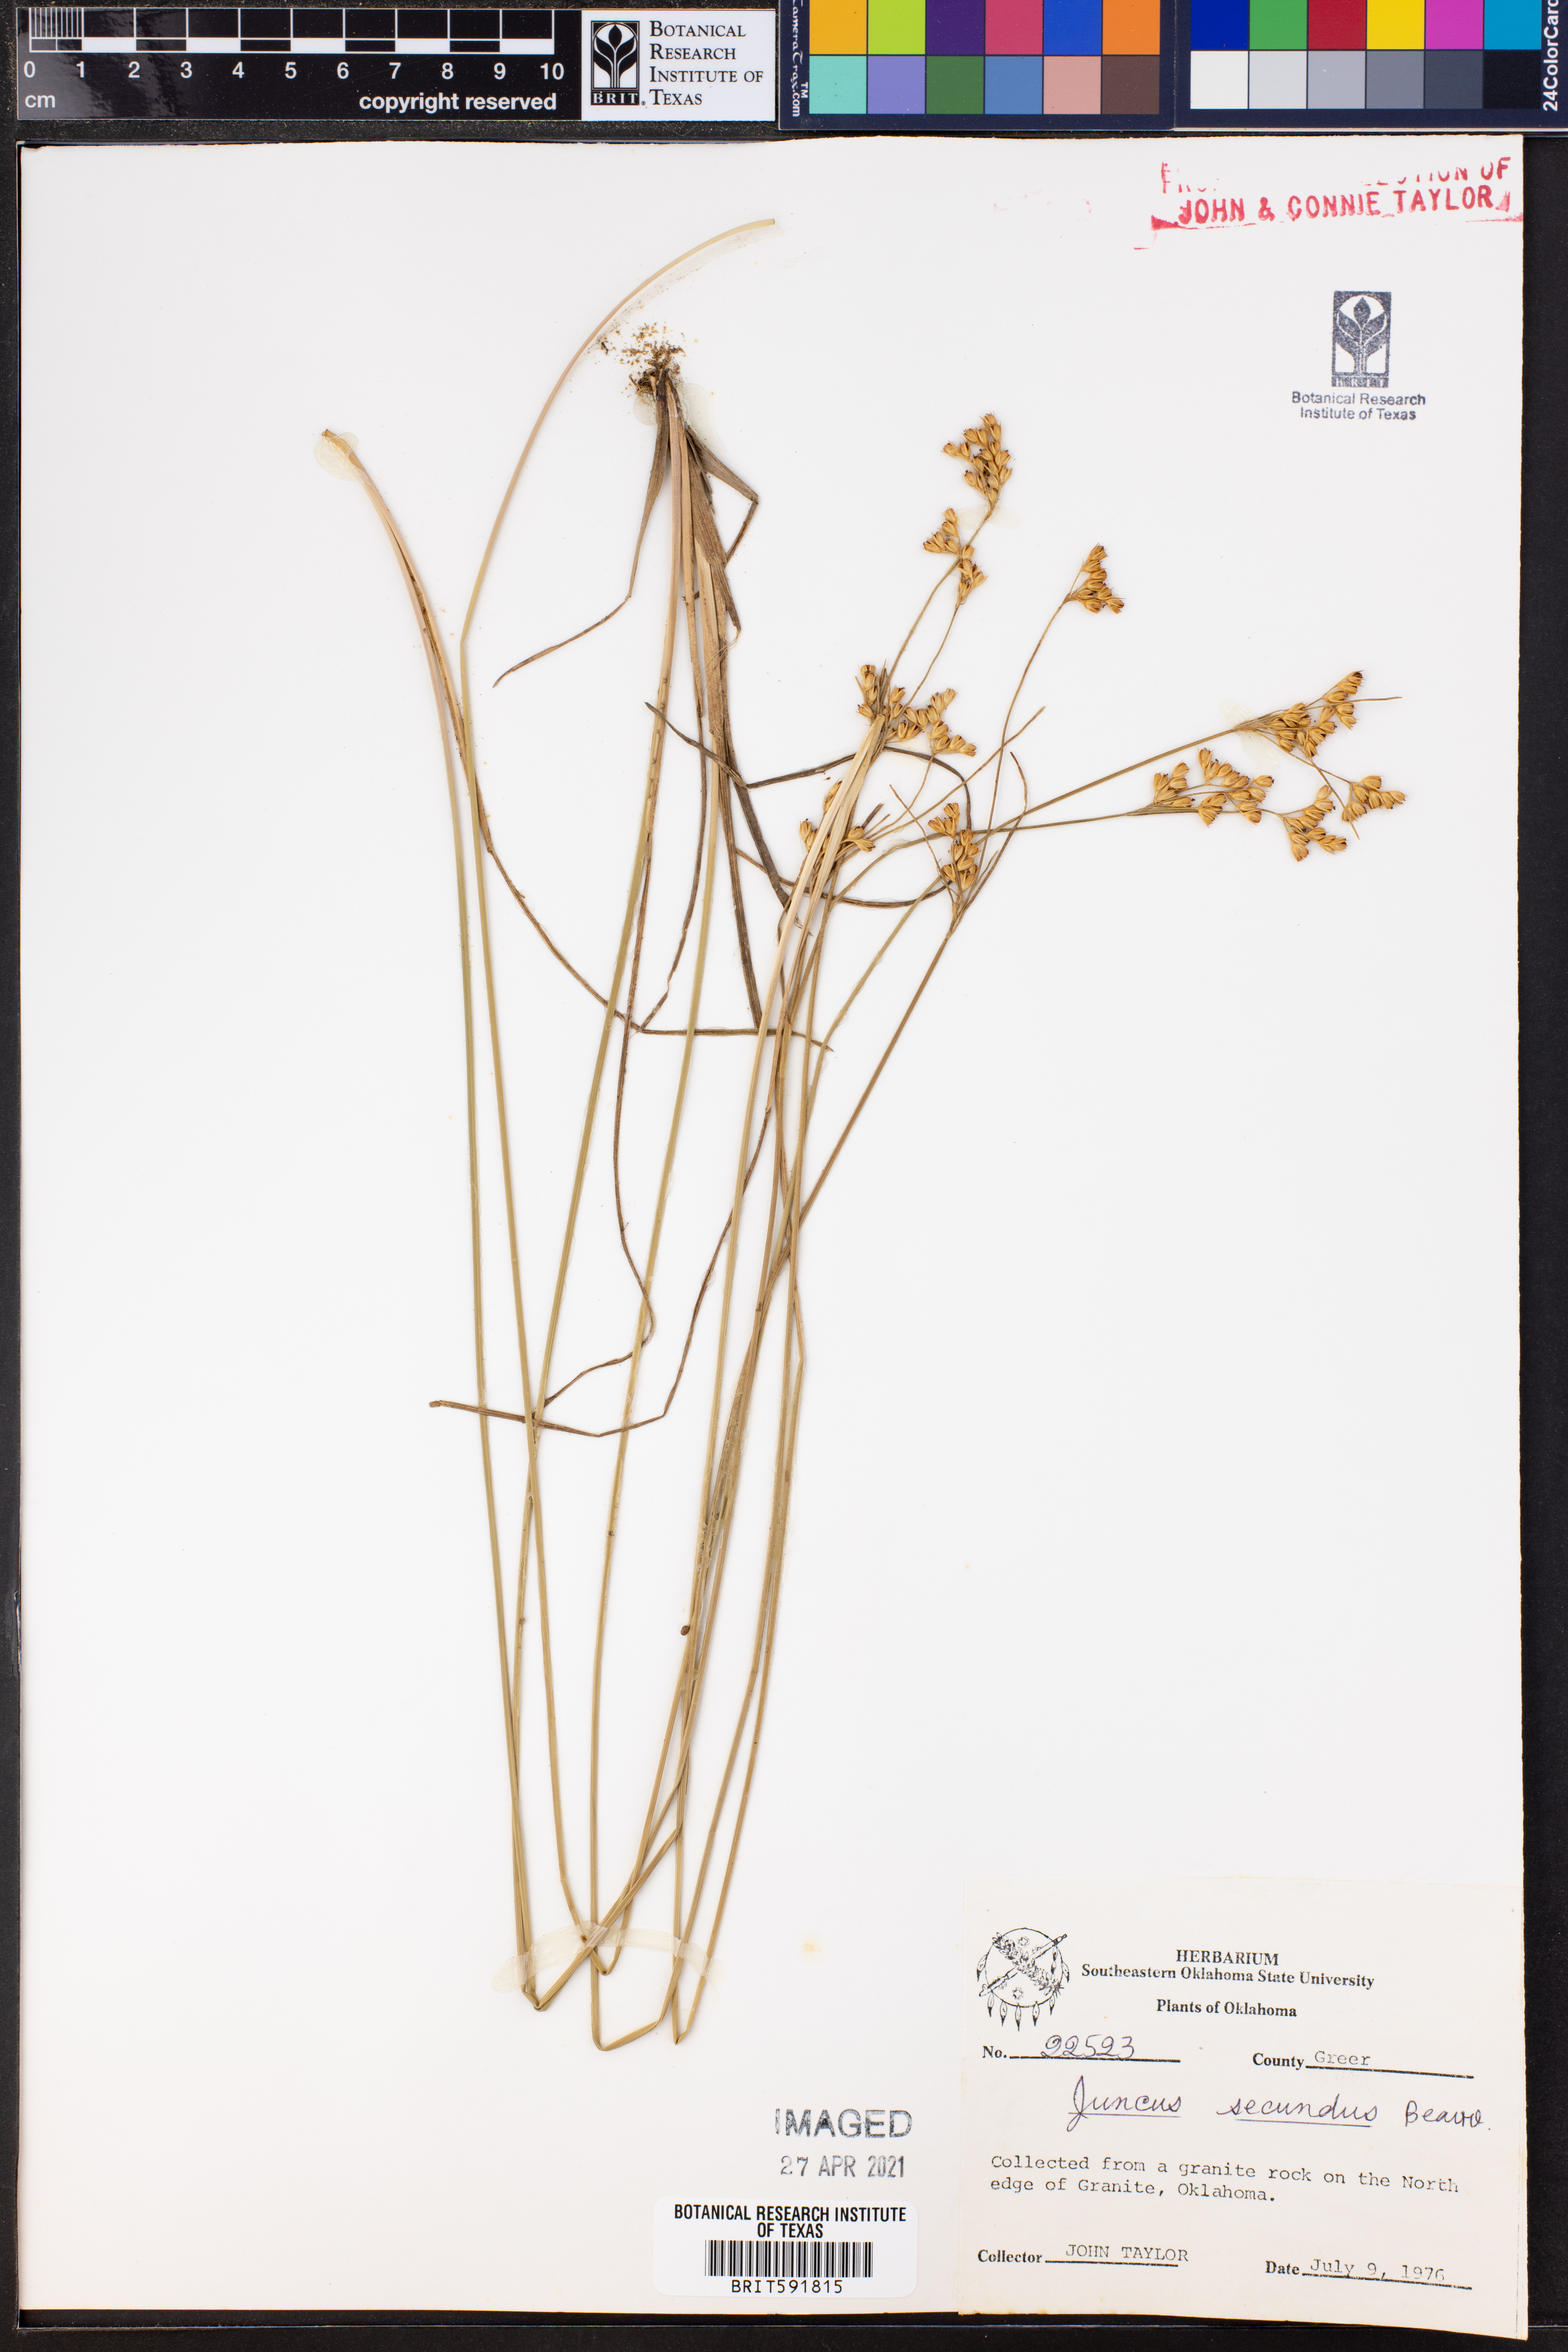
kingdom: Plantae
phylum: Tracheophyta
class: Liliopsida
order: Poales
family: Juncaceae
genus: Juncus
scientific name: Juncus secundus
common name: Lopsided rush
